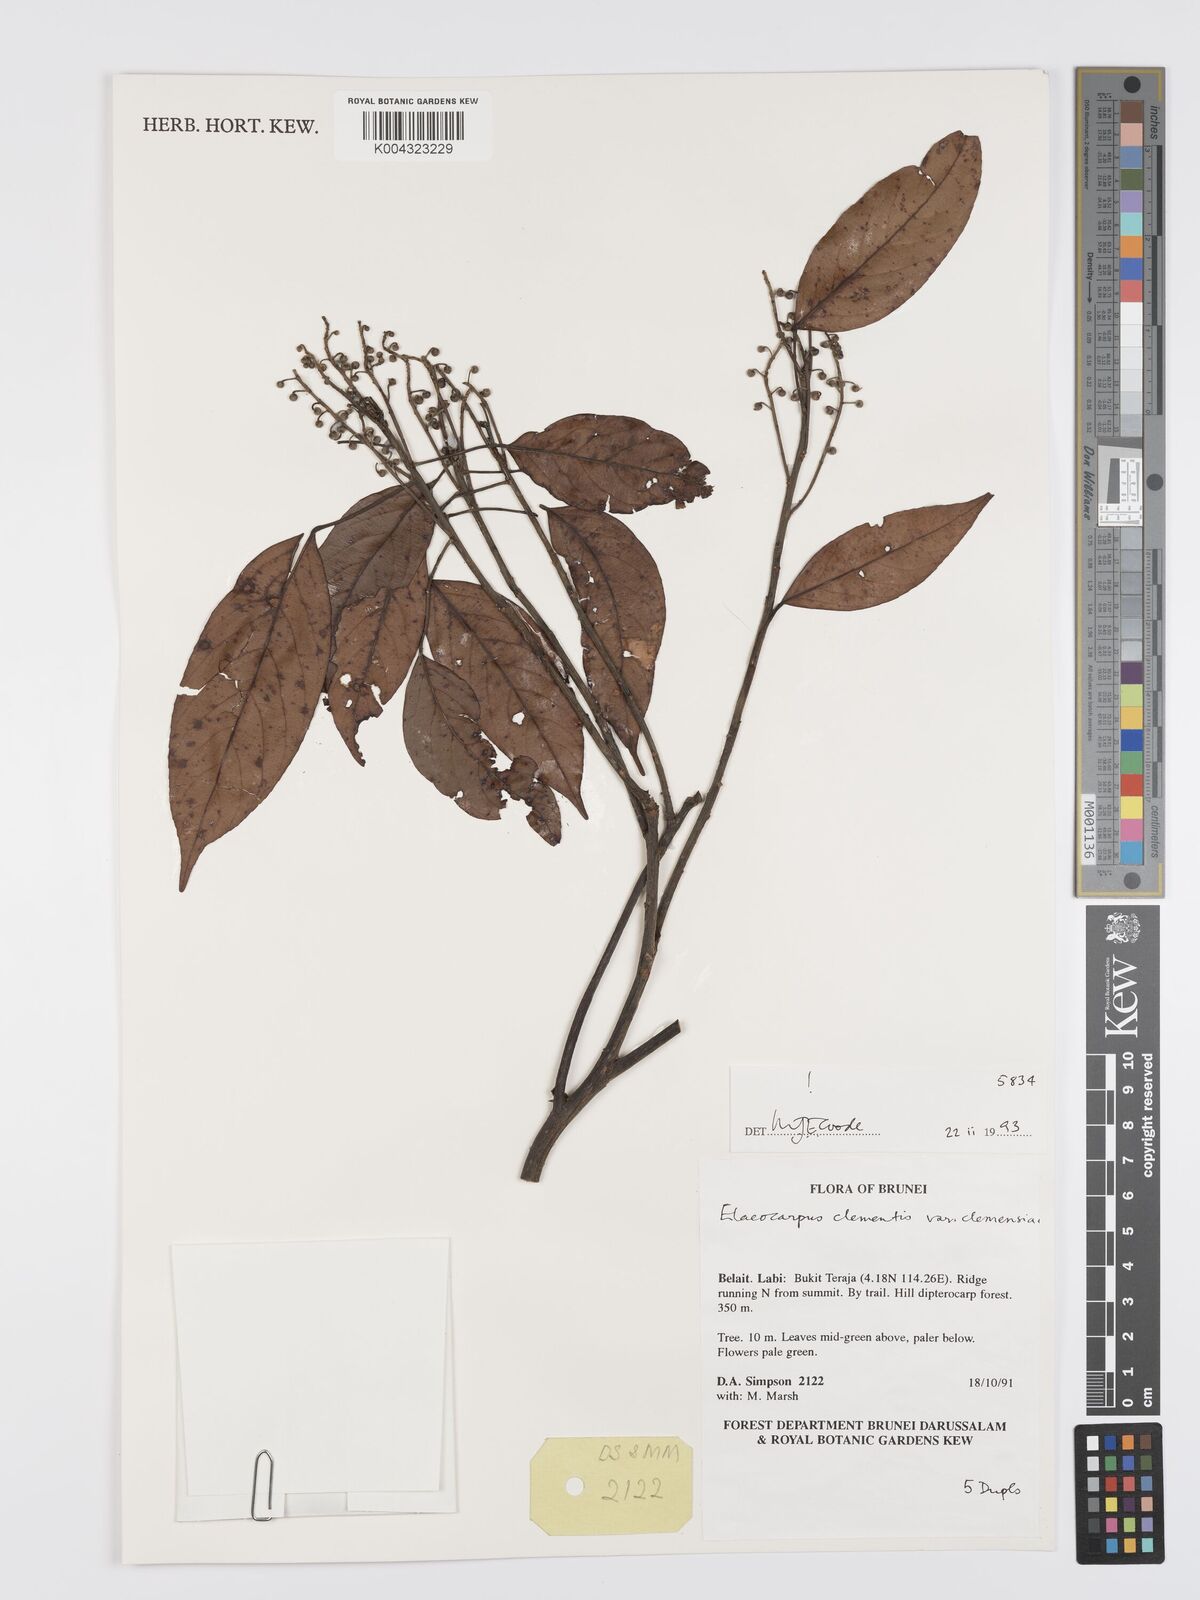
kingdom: Plantae
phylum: Tracheophyta
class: Magnoliopsida
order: Oxalidales
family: Elaeocarpaceae
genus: Elaeocarpus
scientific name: Elaeocarpus clementis
